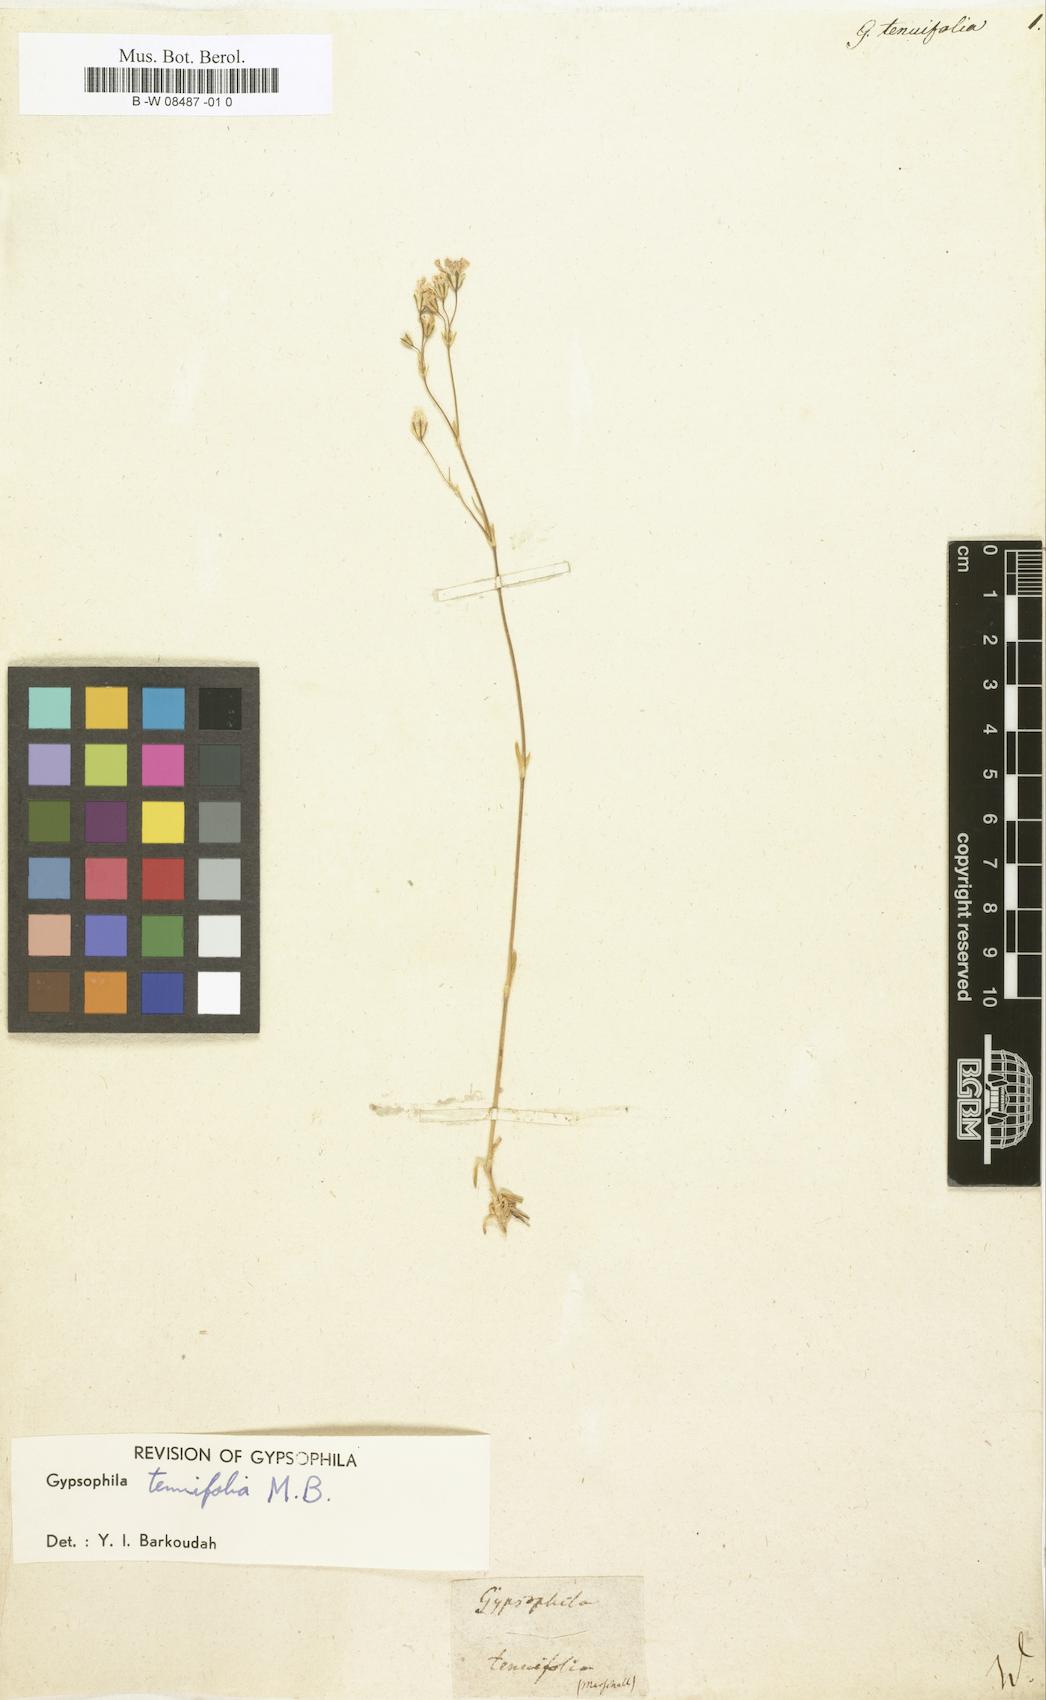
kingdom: Plantae
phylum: Tracheophyta
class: Magnoliopsida
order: Caryophyllales
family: Caryophyllaceae
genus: Gypsophila
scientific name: Gypsophila tenuifolia
